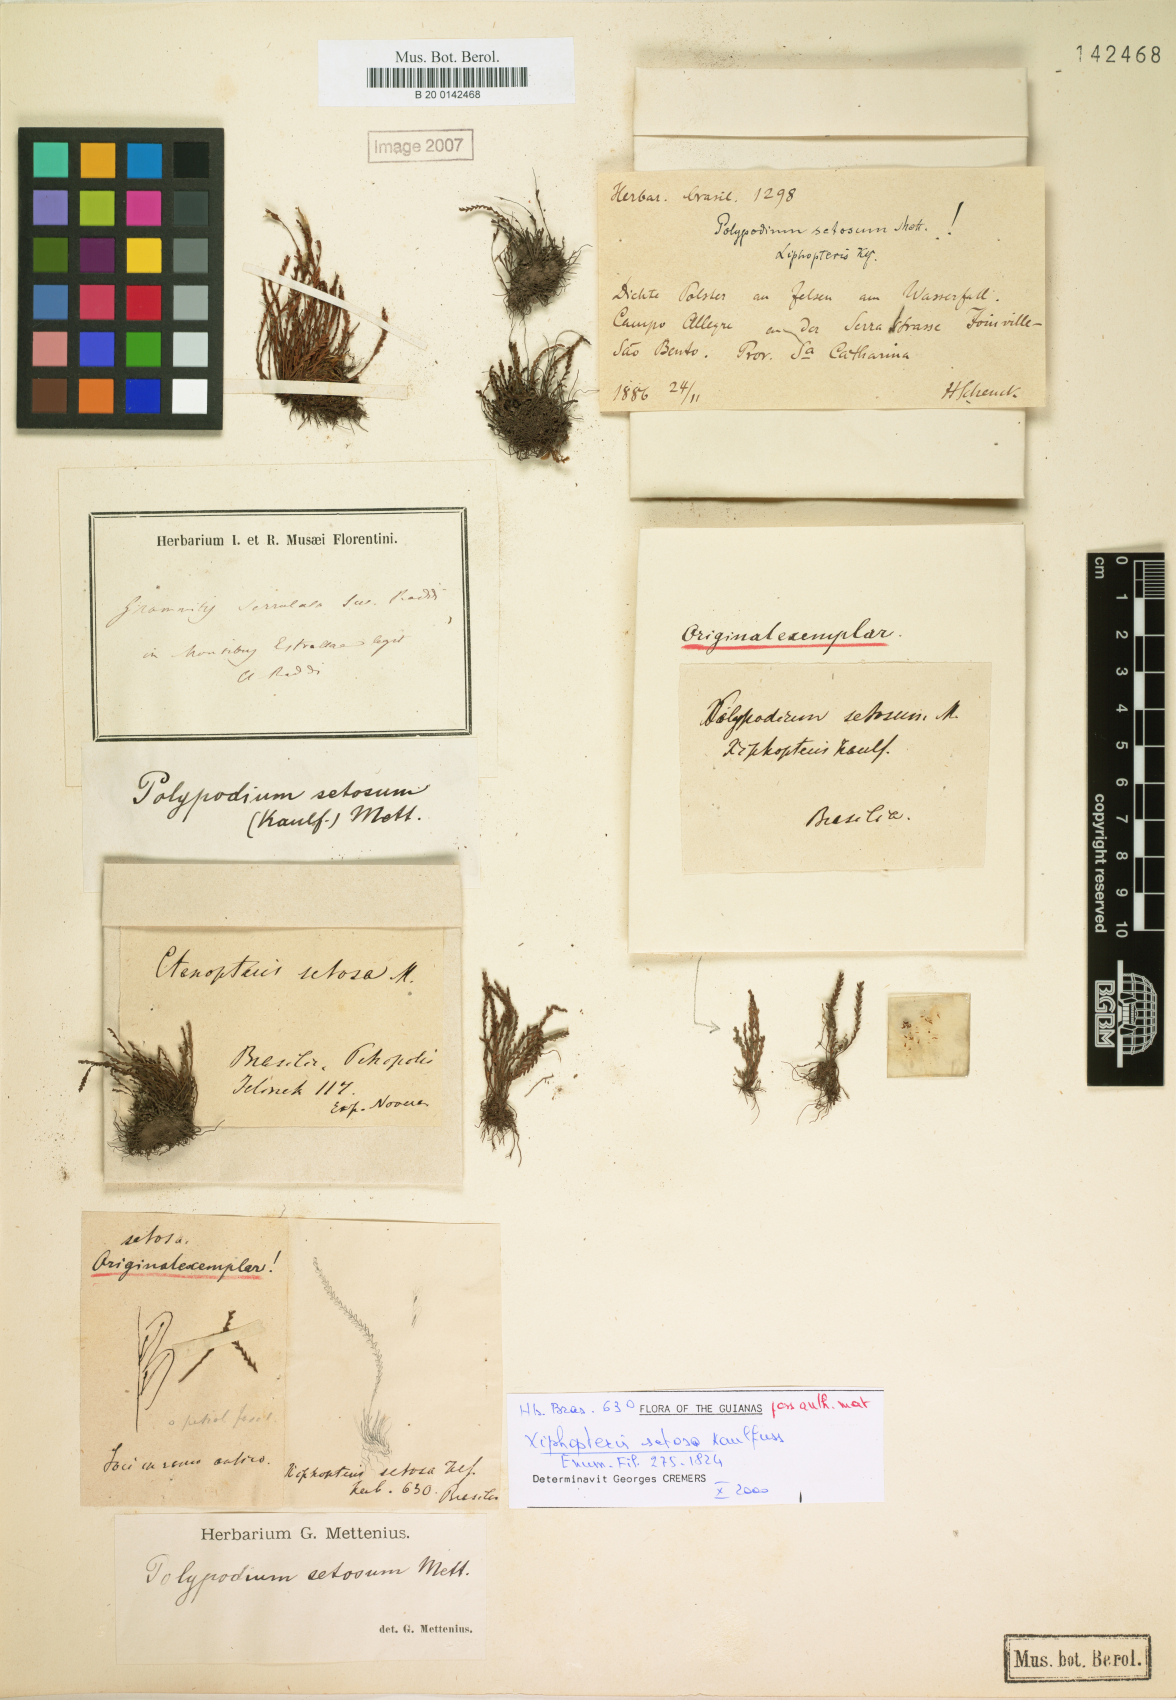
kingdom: Plantae
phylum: Tracheophyta
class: Polypodiopsida
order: Polypodiales
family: Polypodiaceae
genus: Moranopteris
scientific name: Moranopteris setosa
